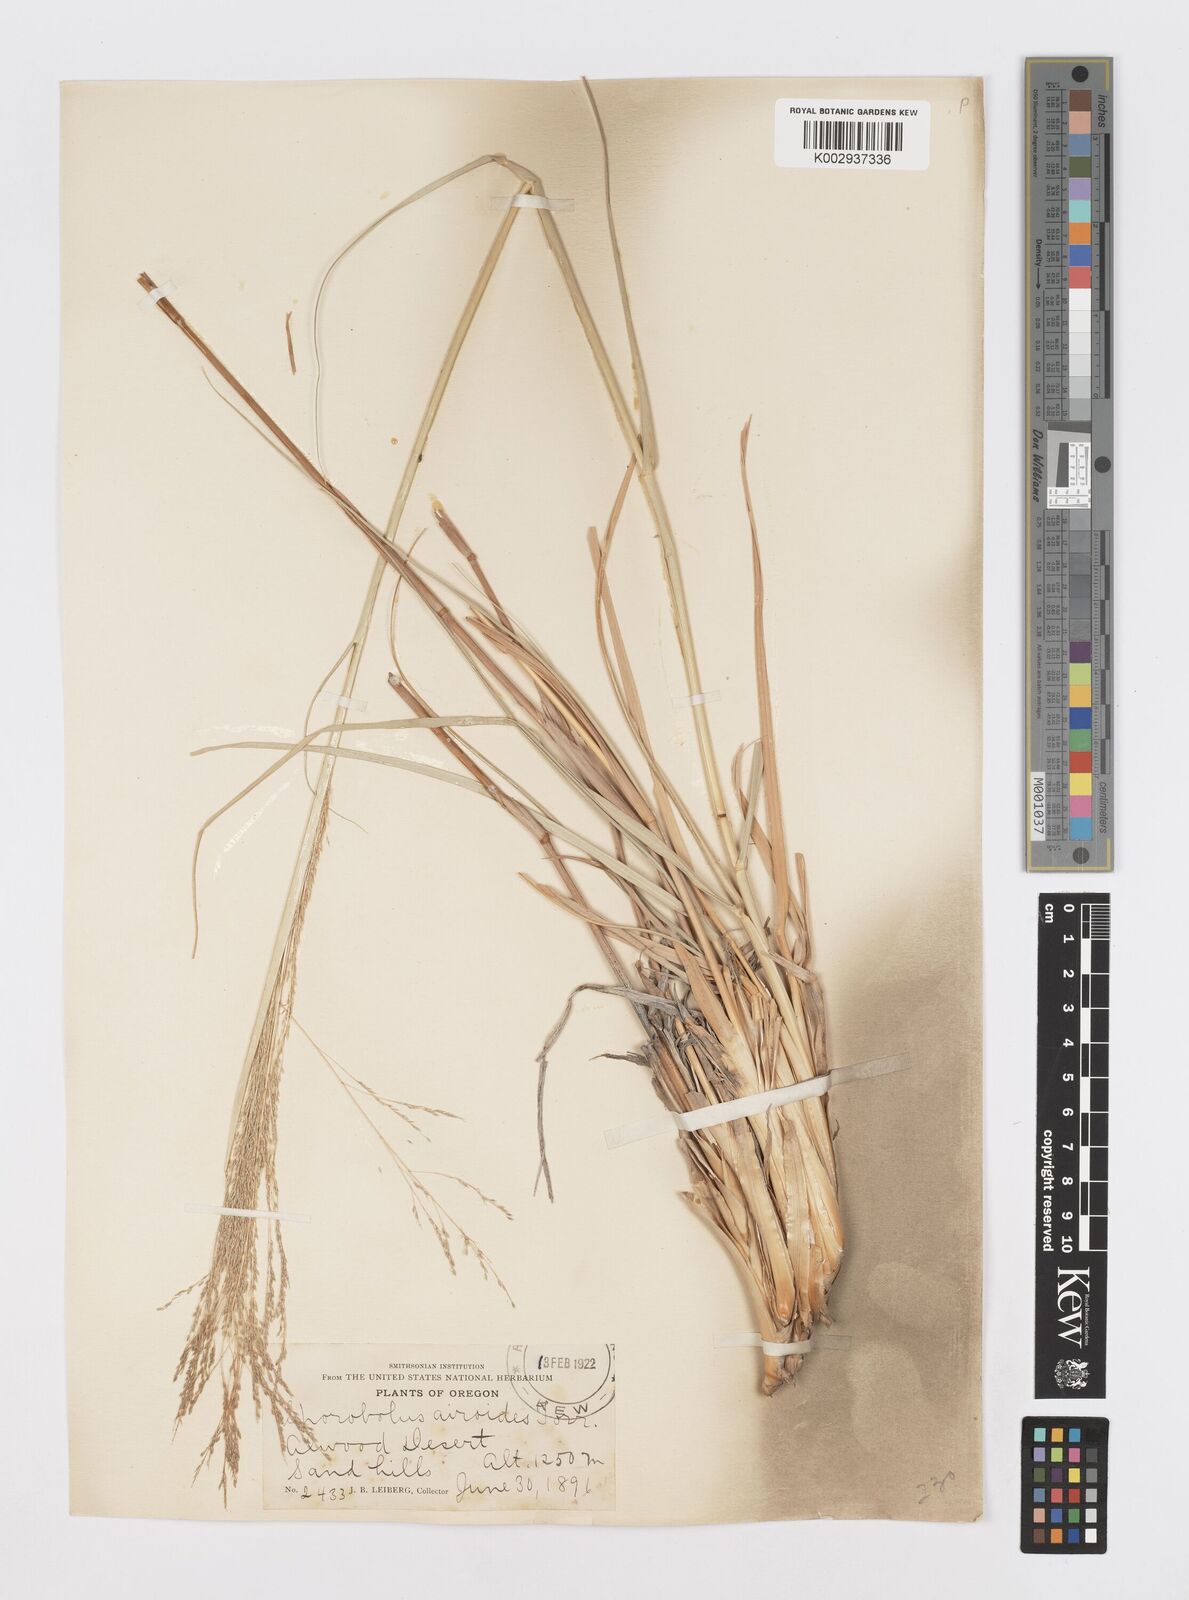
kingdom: Plantae
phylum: Tracheophyta
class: Liliopsida
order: Poales
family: Poaceae
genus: Sporobolus
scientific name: Sporobolus airoides
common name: Alkali sacaton
